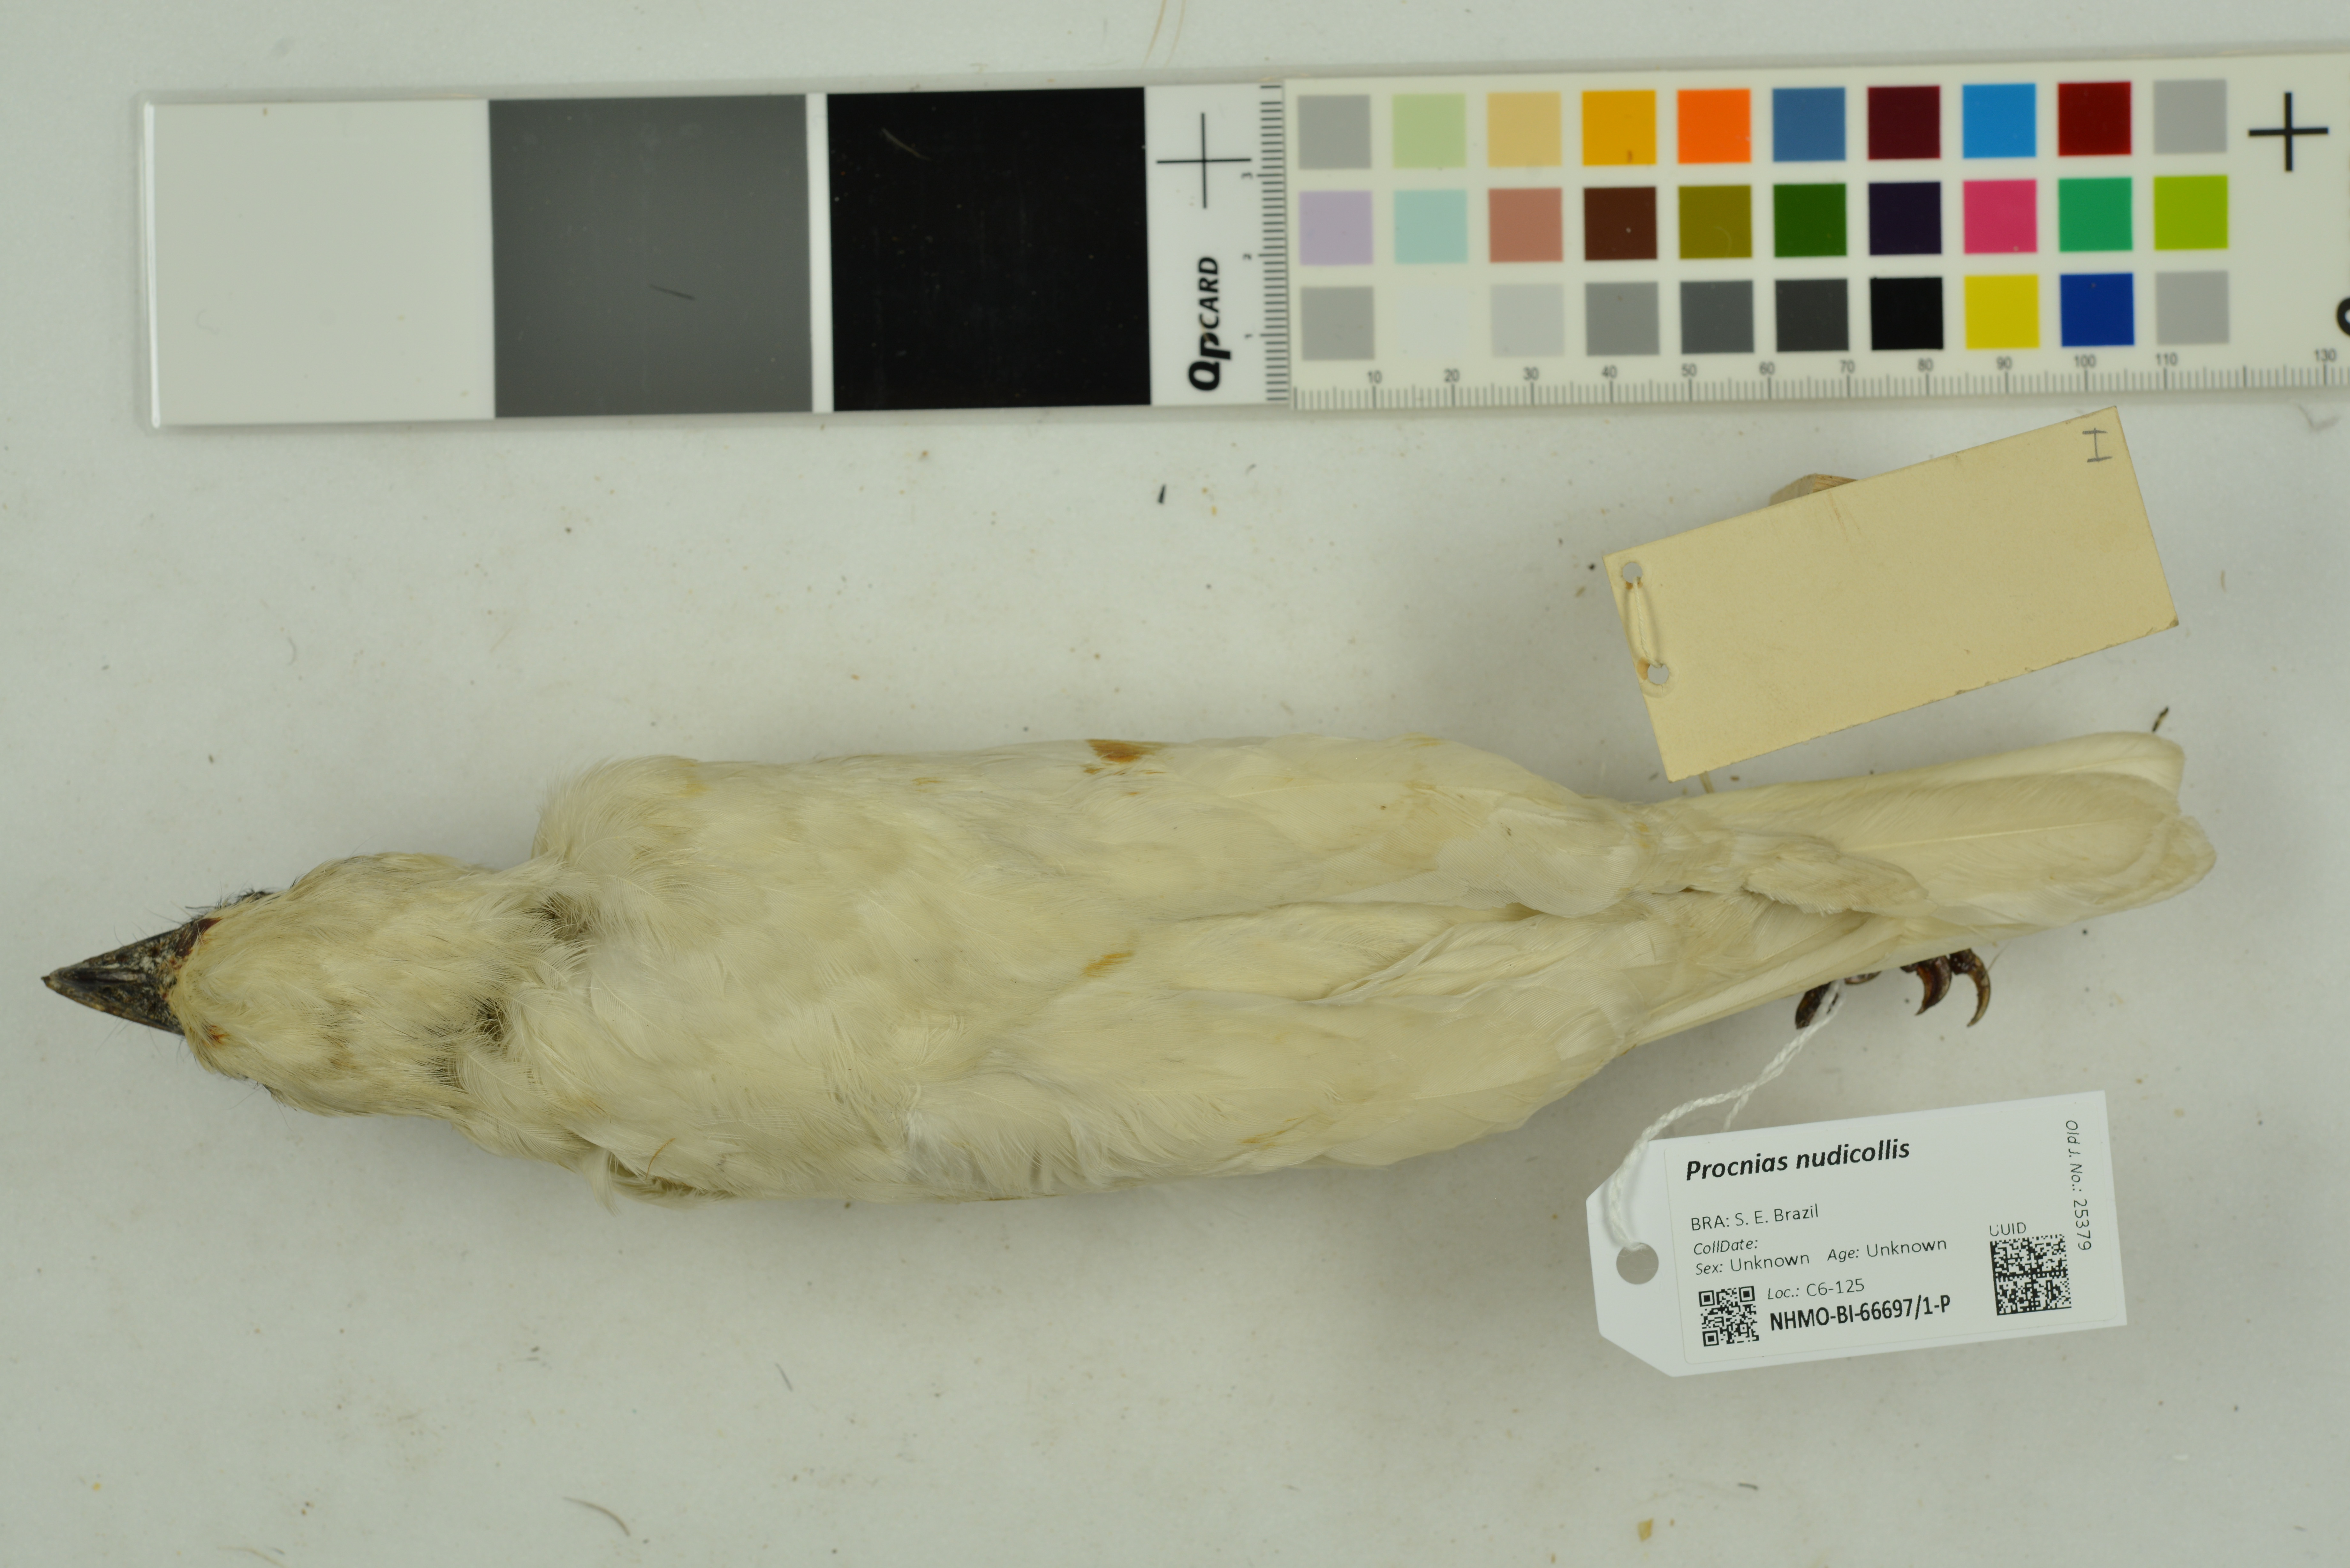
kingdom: Animalia
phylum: Chordata
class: Aves
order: Passeriformes
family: Cotingidae
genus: Procnias
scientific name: Procnias nudicollis
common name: Bare-throated bellbird
